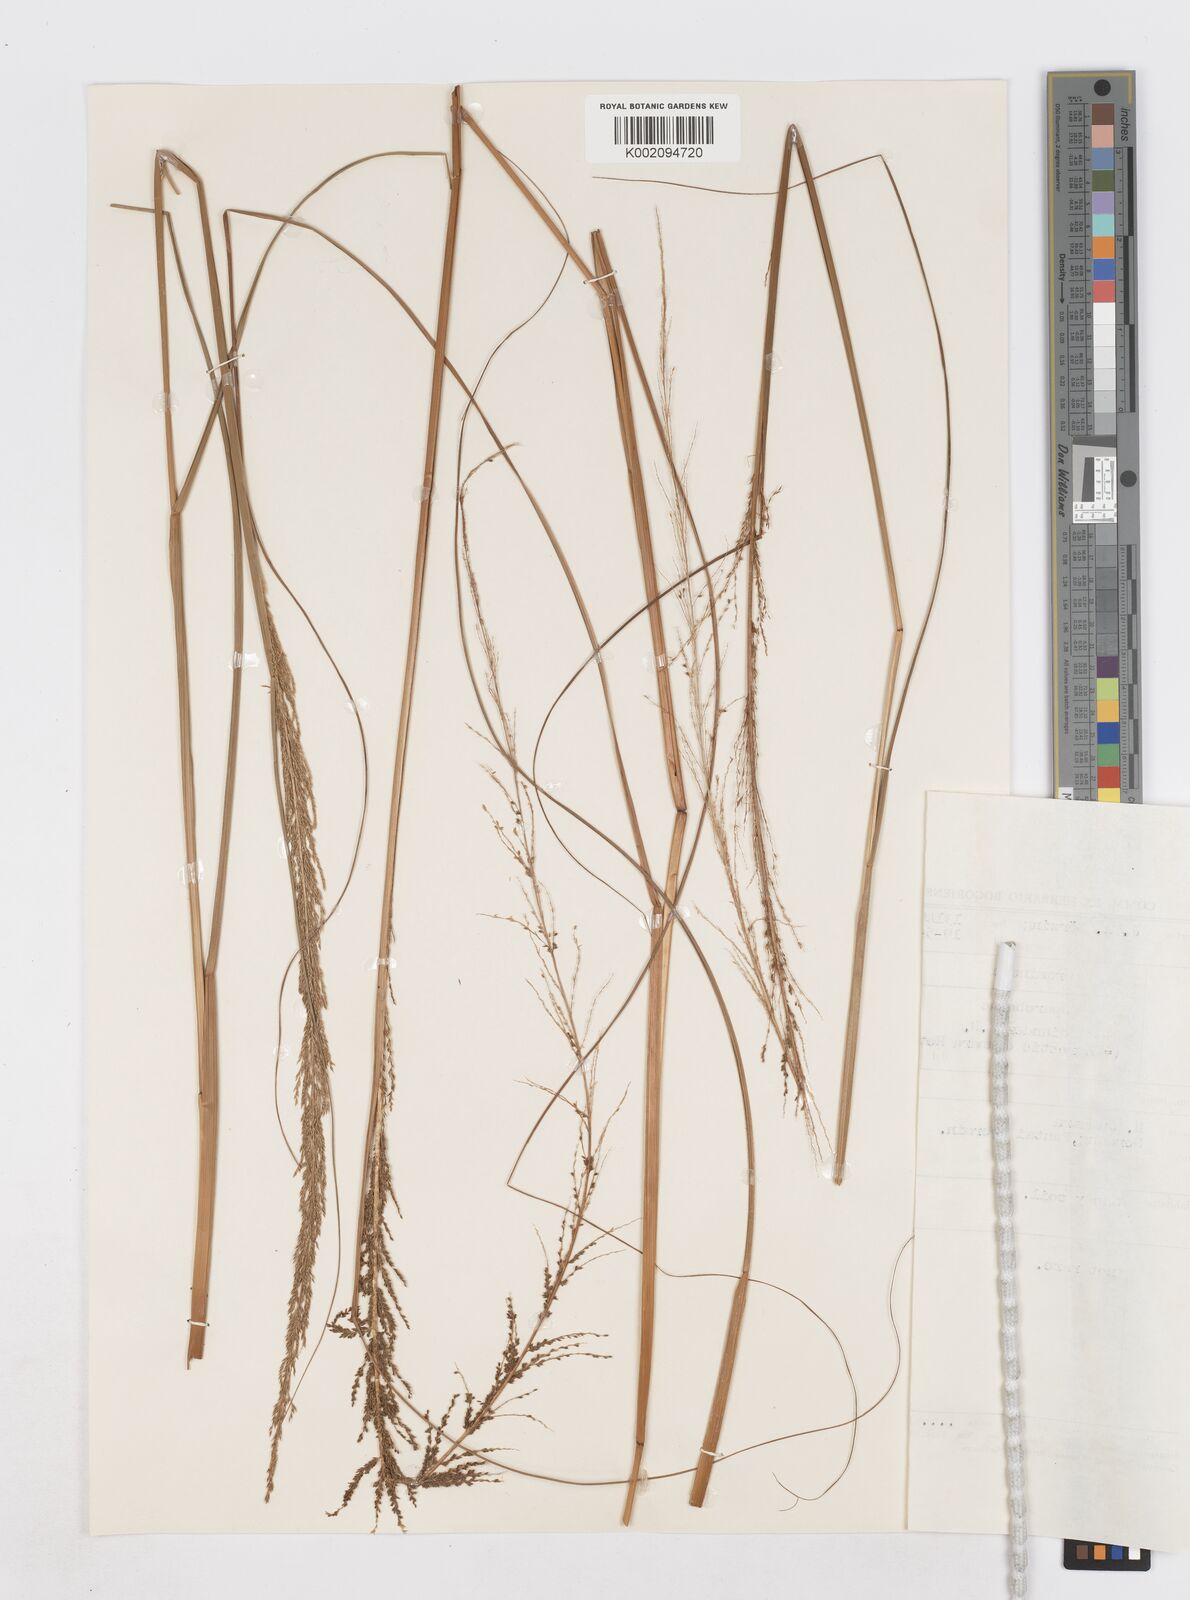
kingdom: Plantae
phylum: Tracheophyta
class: Liliopsida
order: Poales
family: Poaceae
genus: Sporobolus
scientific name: Sporobolus diandrus
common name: Tussock dropseed
